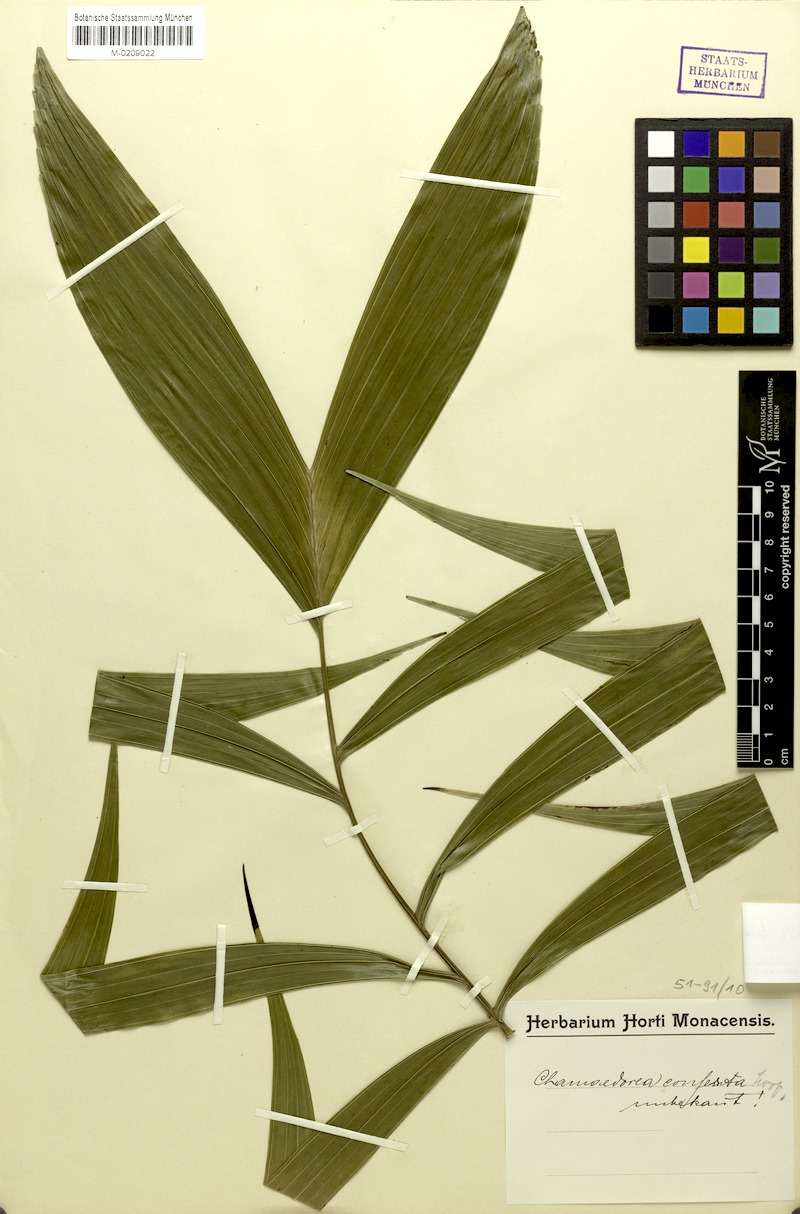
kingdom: Plantae
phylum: Tracheophyta
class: Liliopsida
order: Arecales
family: Arecaceae
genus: Chamaedorea
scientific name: Chamaedorea sartorii
